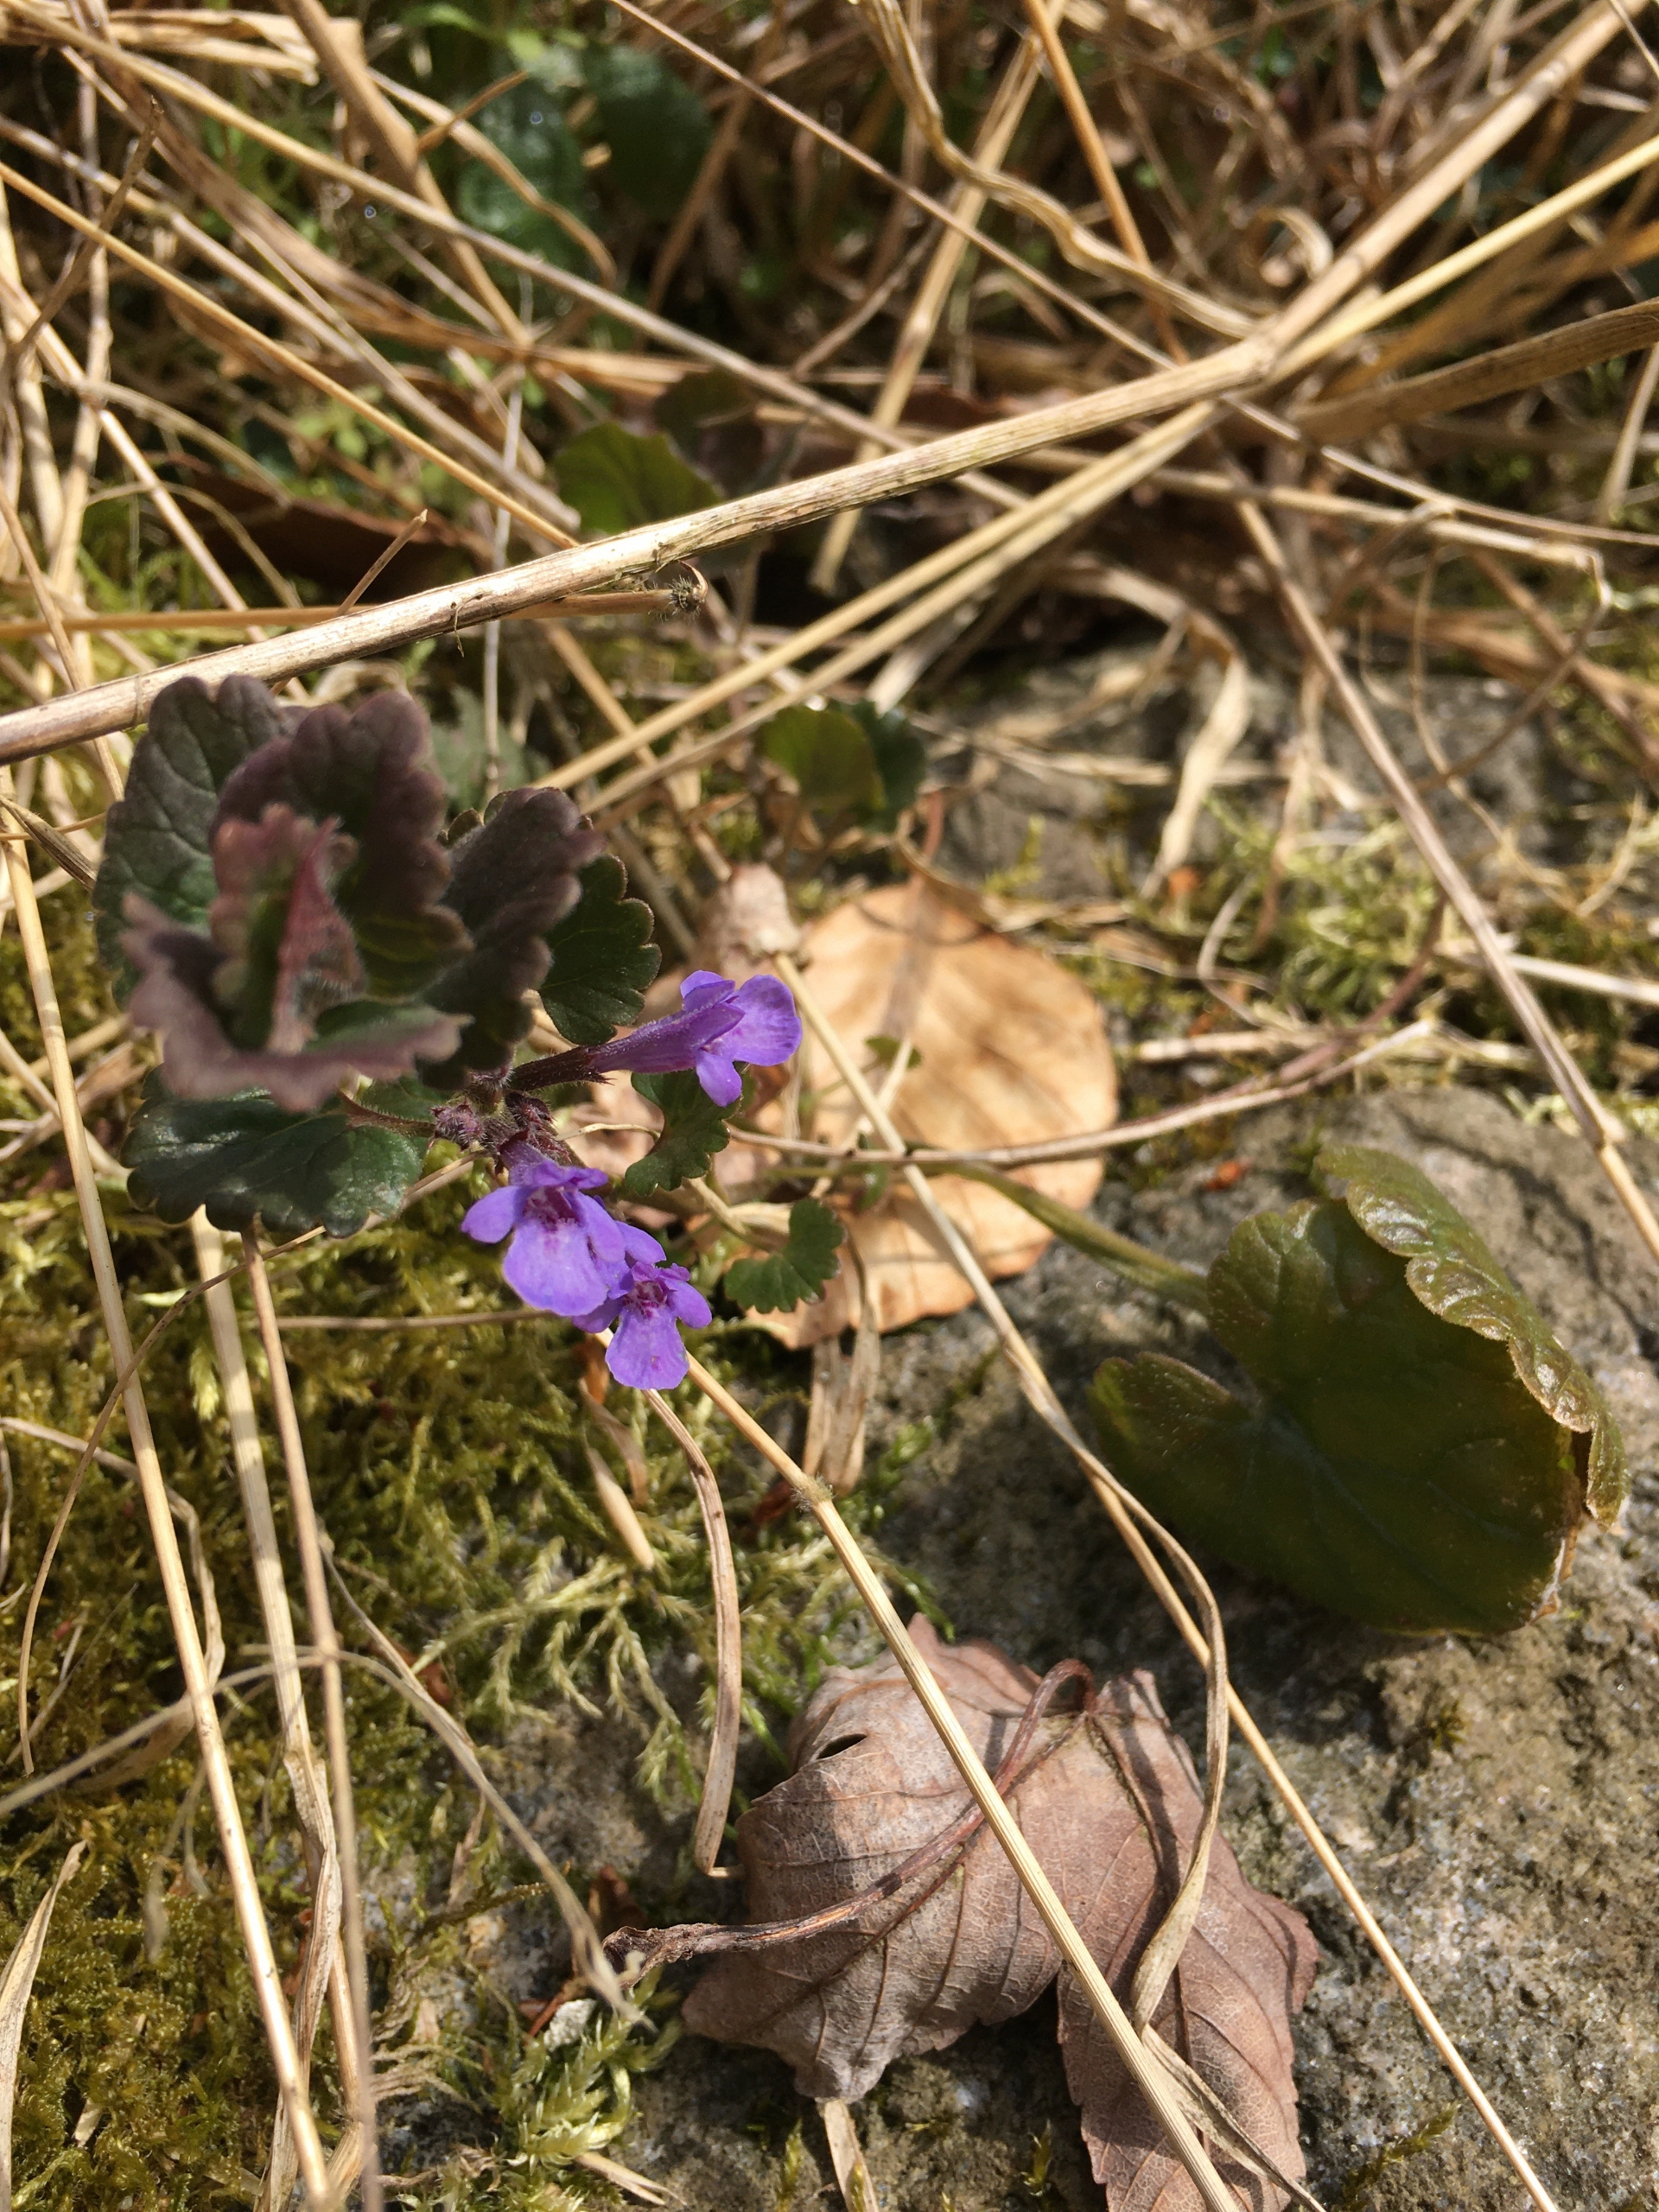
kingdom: Plantae
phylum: Tracheophyta
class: Magnoliopsida
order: Lamiales
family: Lamiaceae
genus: Glechoma
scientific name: Glechoma hederacea
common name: Korsknap
